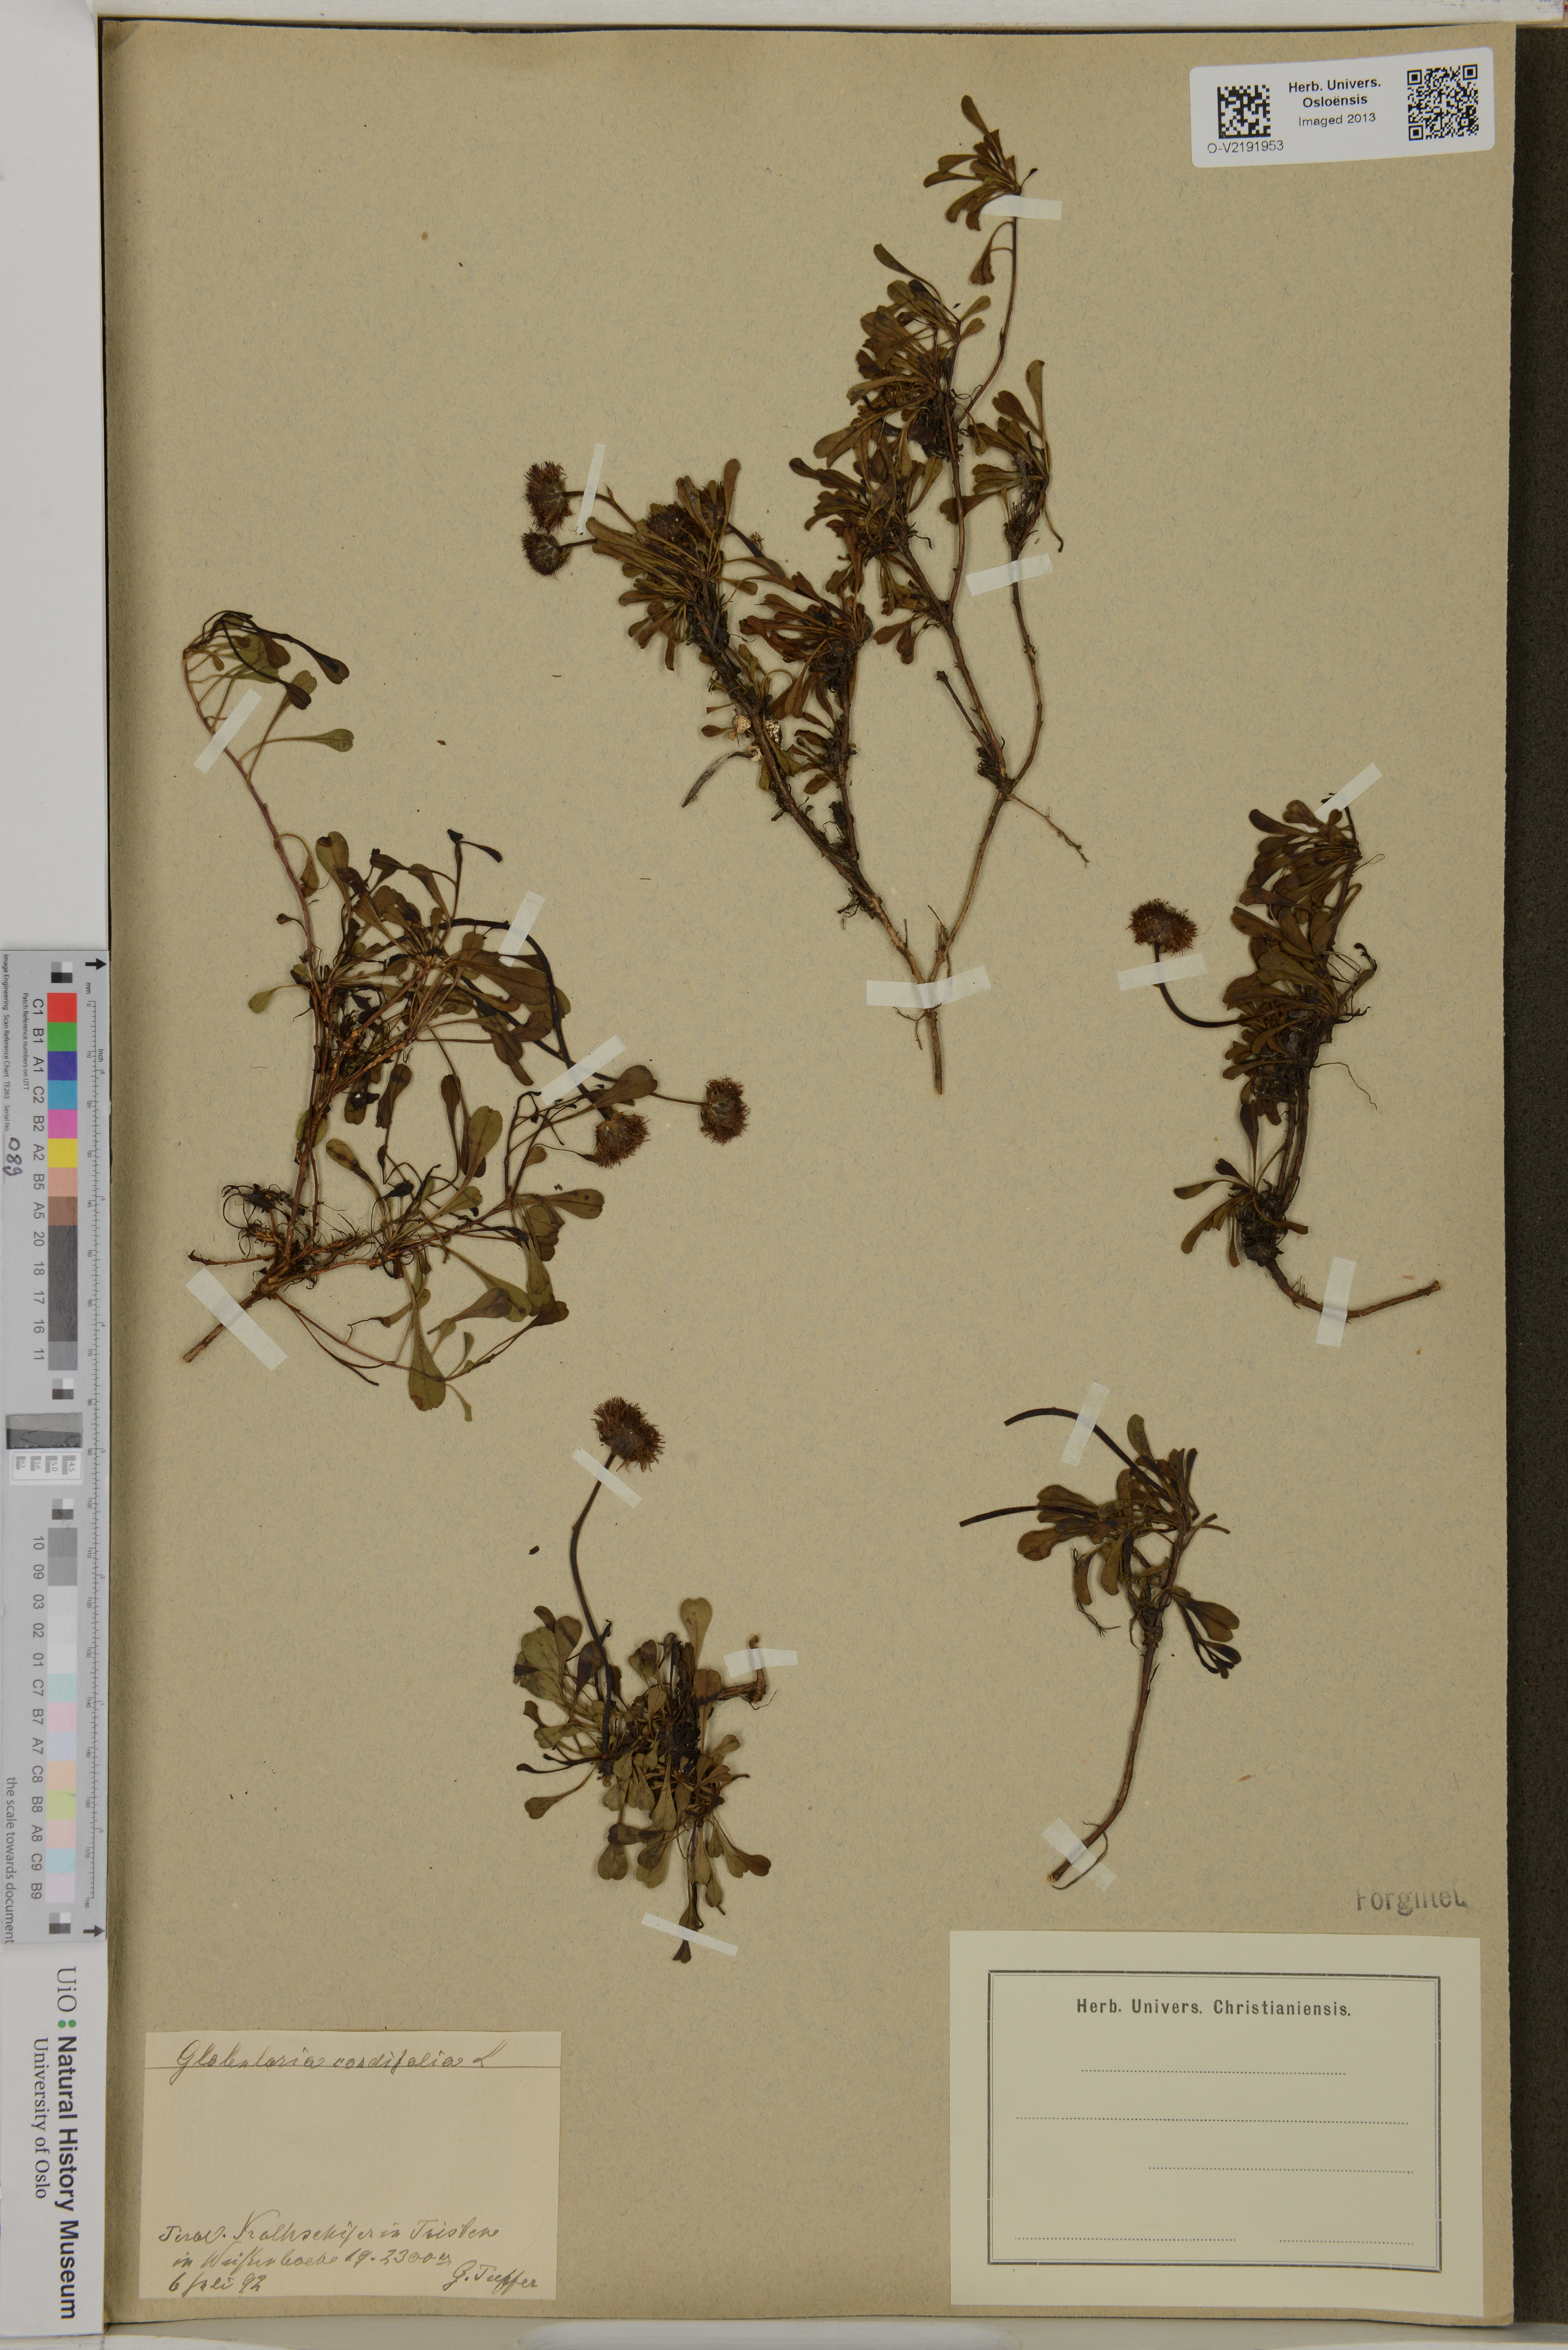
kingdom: Plantae
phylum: Tracheophyta
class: Magnoliopsida
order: Lamiales
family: Plantaginaceae
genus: Globularia
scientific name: Globularia cordifolia
